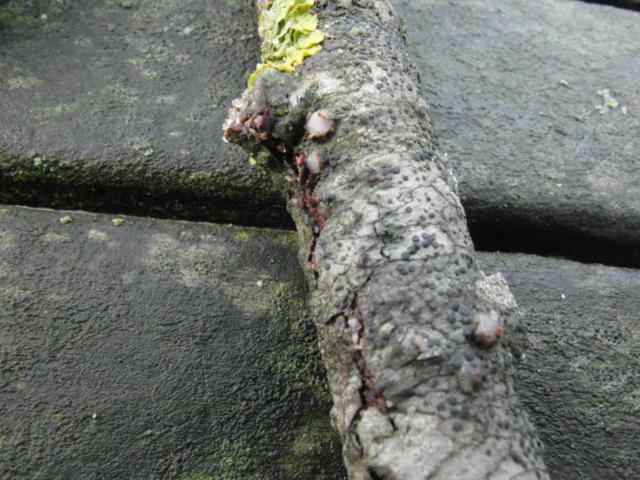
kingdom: Fungi
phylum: Basidiomycota
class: Pucciniomycetes
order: Platygloeales
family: Platygloeaceae
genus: Platygloea
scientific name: Platygloea disciformis
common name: linde-slimklat
